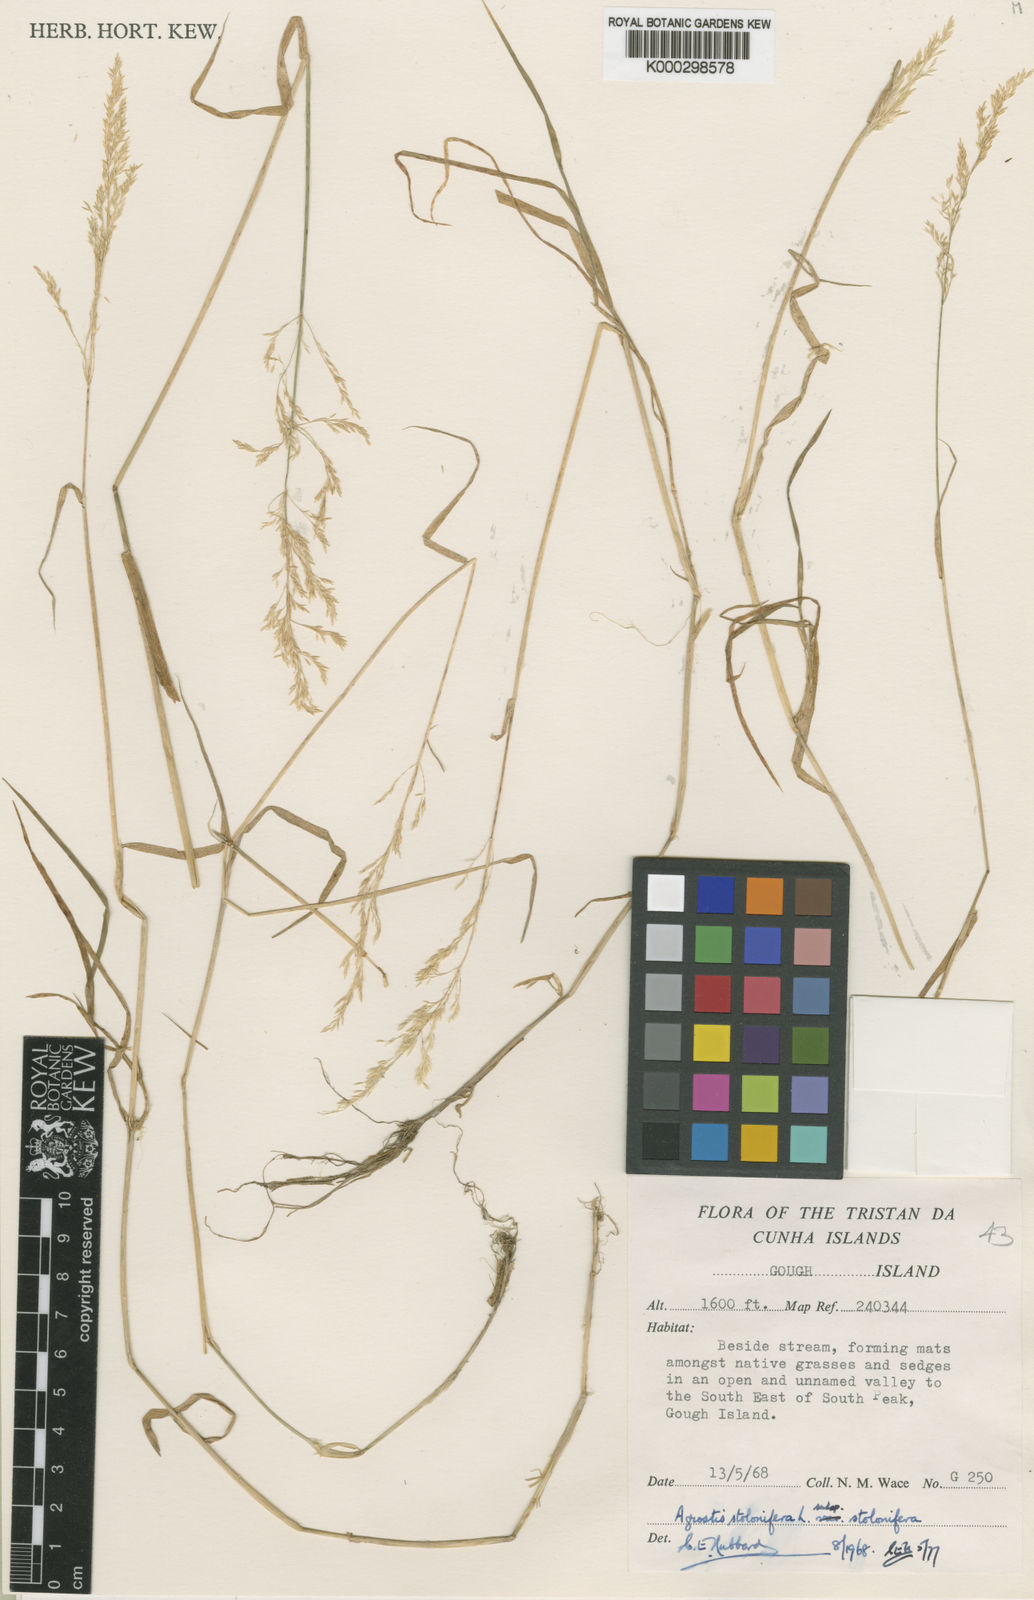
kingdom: Plantae
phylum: Tracheophyta
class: Liliopsida
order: Poales
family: Poaceae
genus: Agrostis
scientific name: Agrostis stolonifera
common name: Creeping bentgrass
